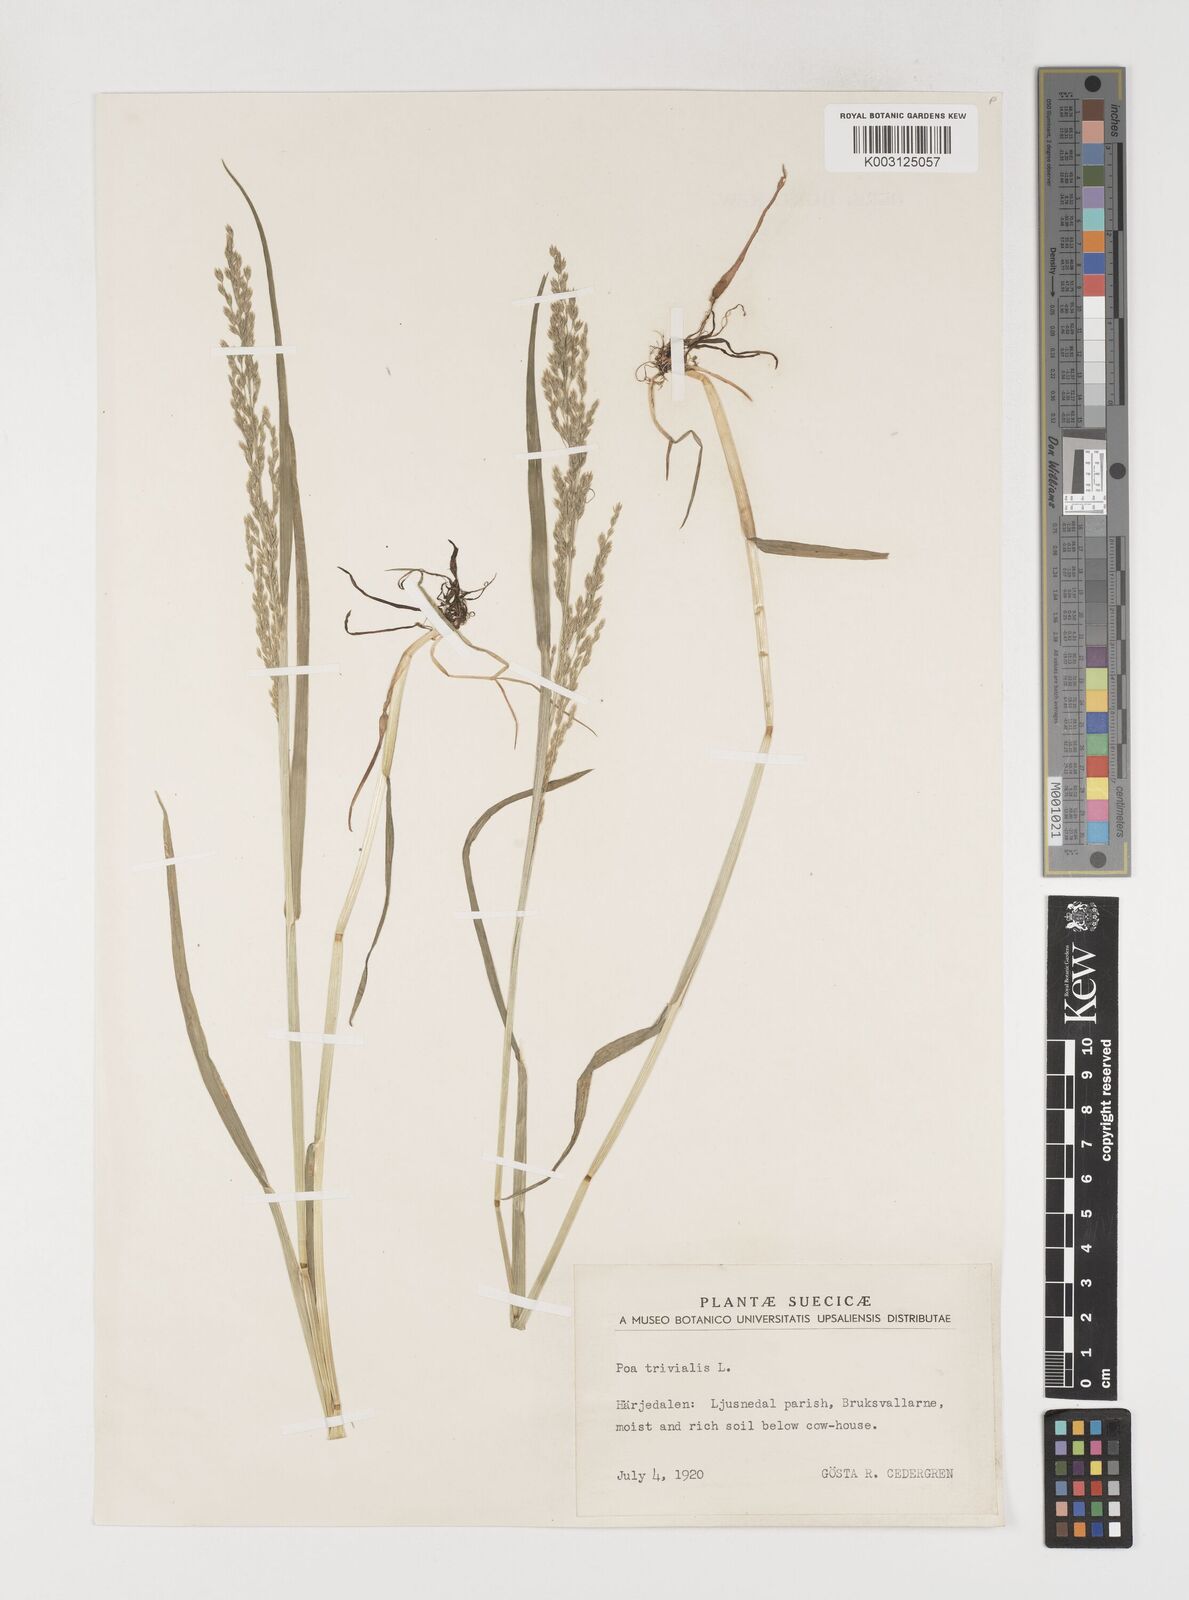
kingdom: Plantae
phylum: Tracheophyta
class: Liliopsida
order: Poales
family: Poaceae
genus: Poa
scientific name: Poa trivialis
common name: Rough bluegrass
